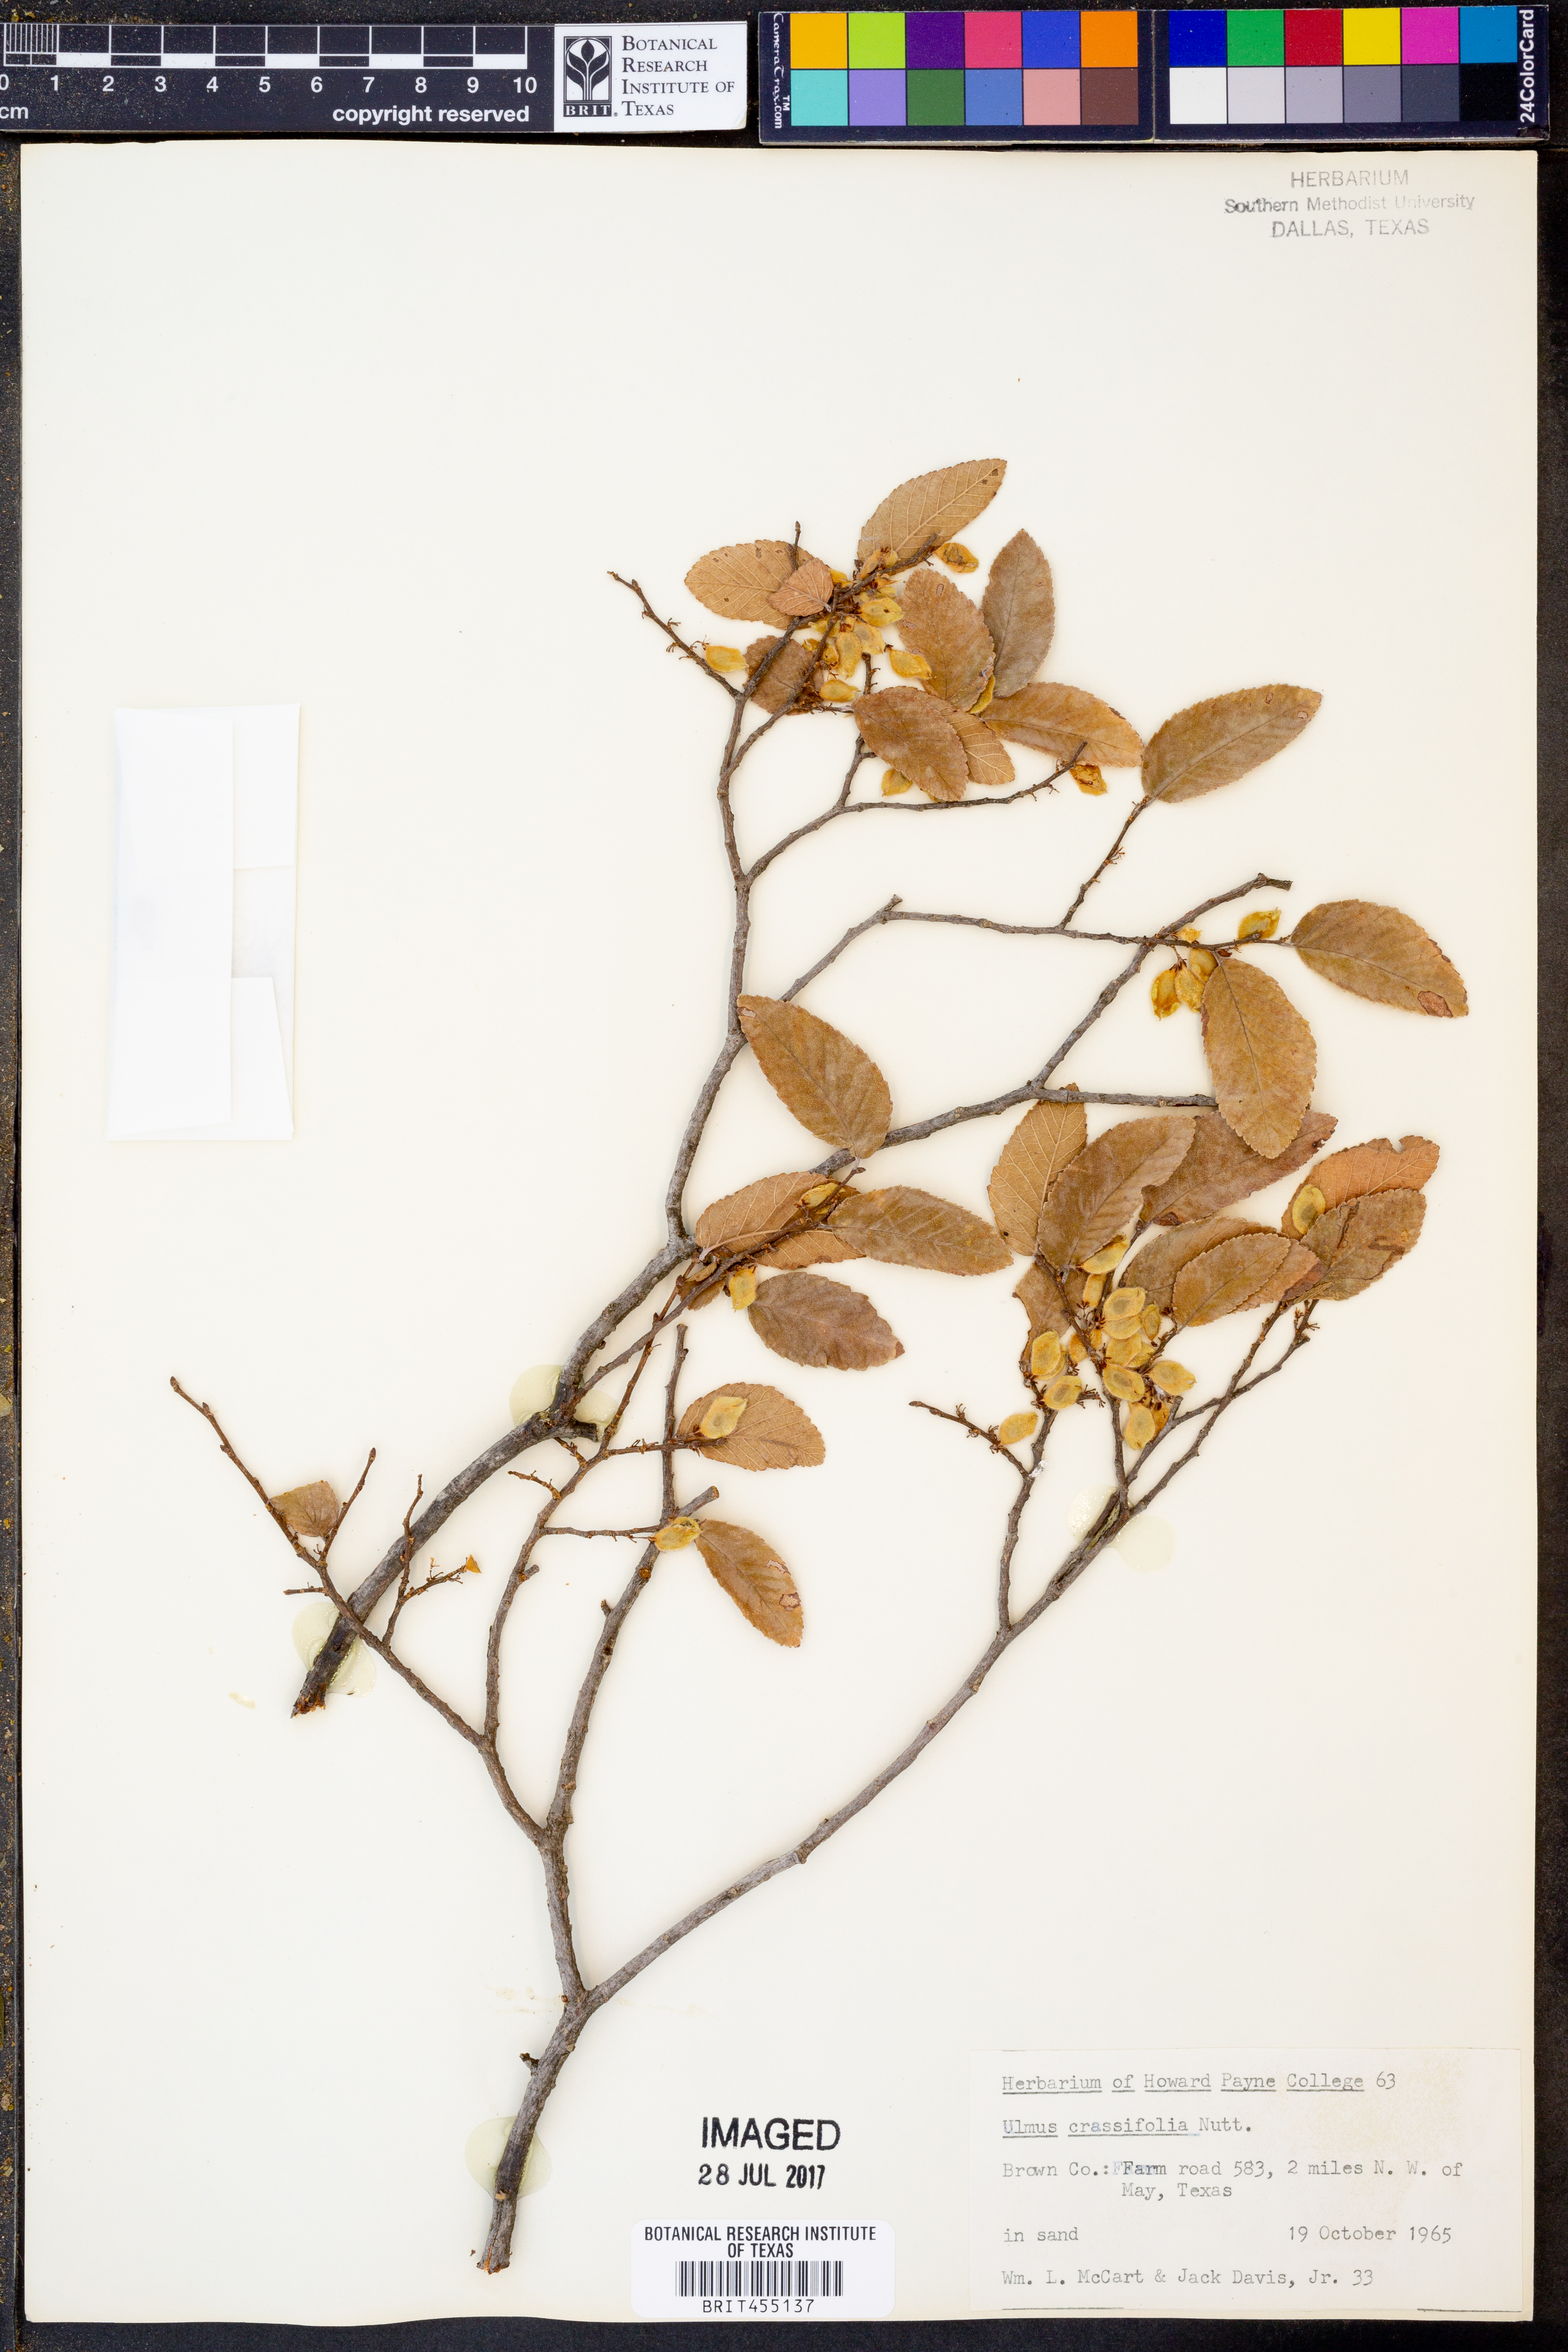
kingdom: Plantae
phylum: Tracheophyta
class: Magnoliopsida
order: Rosales
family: Ulmaceae
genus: Ulmus
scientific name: Ulmus crassifolia
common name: Basket elm
